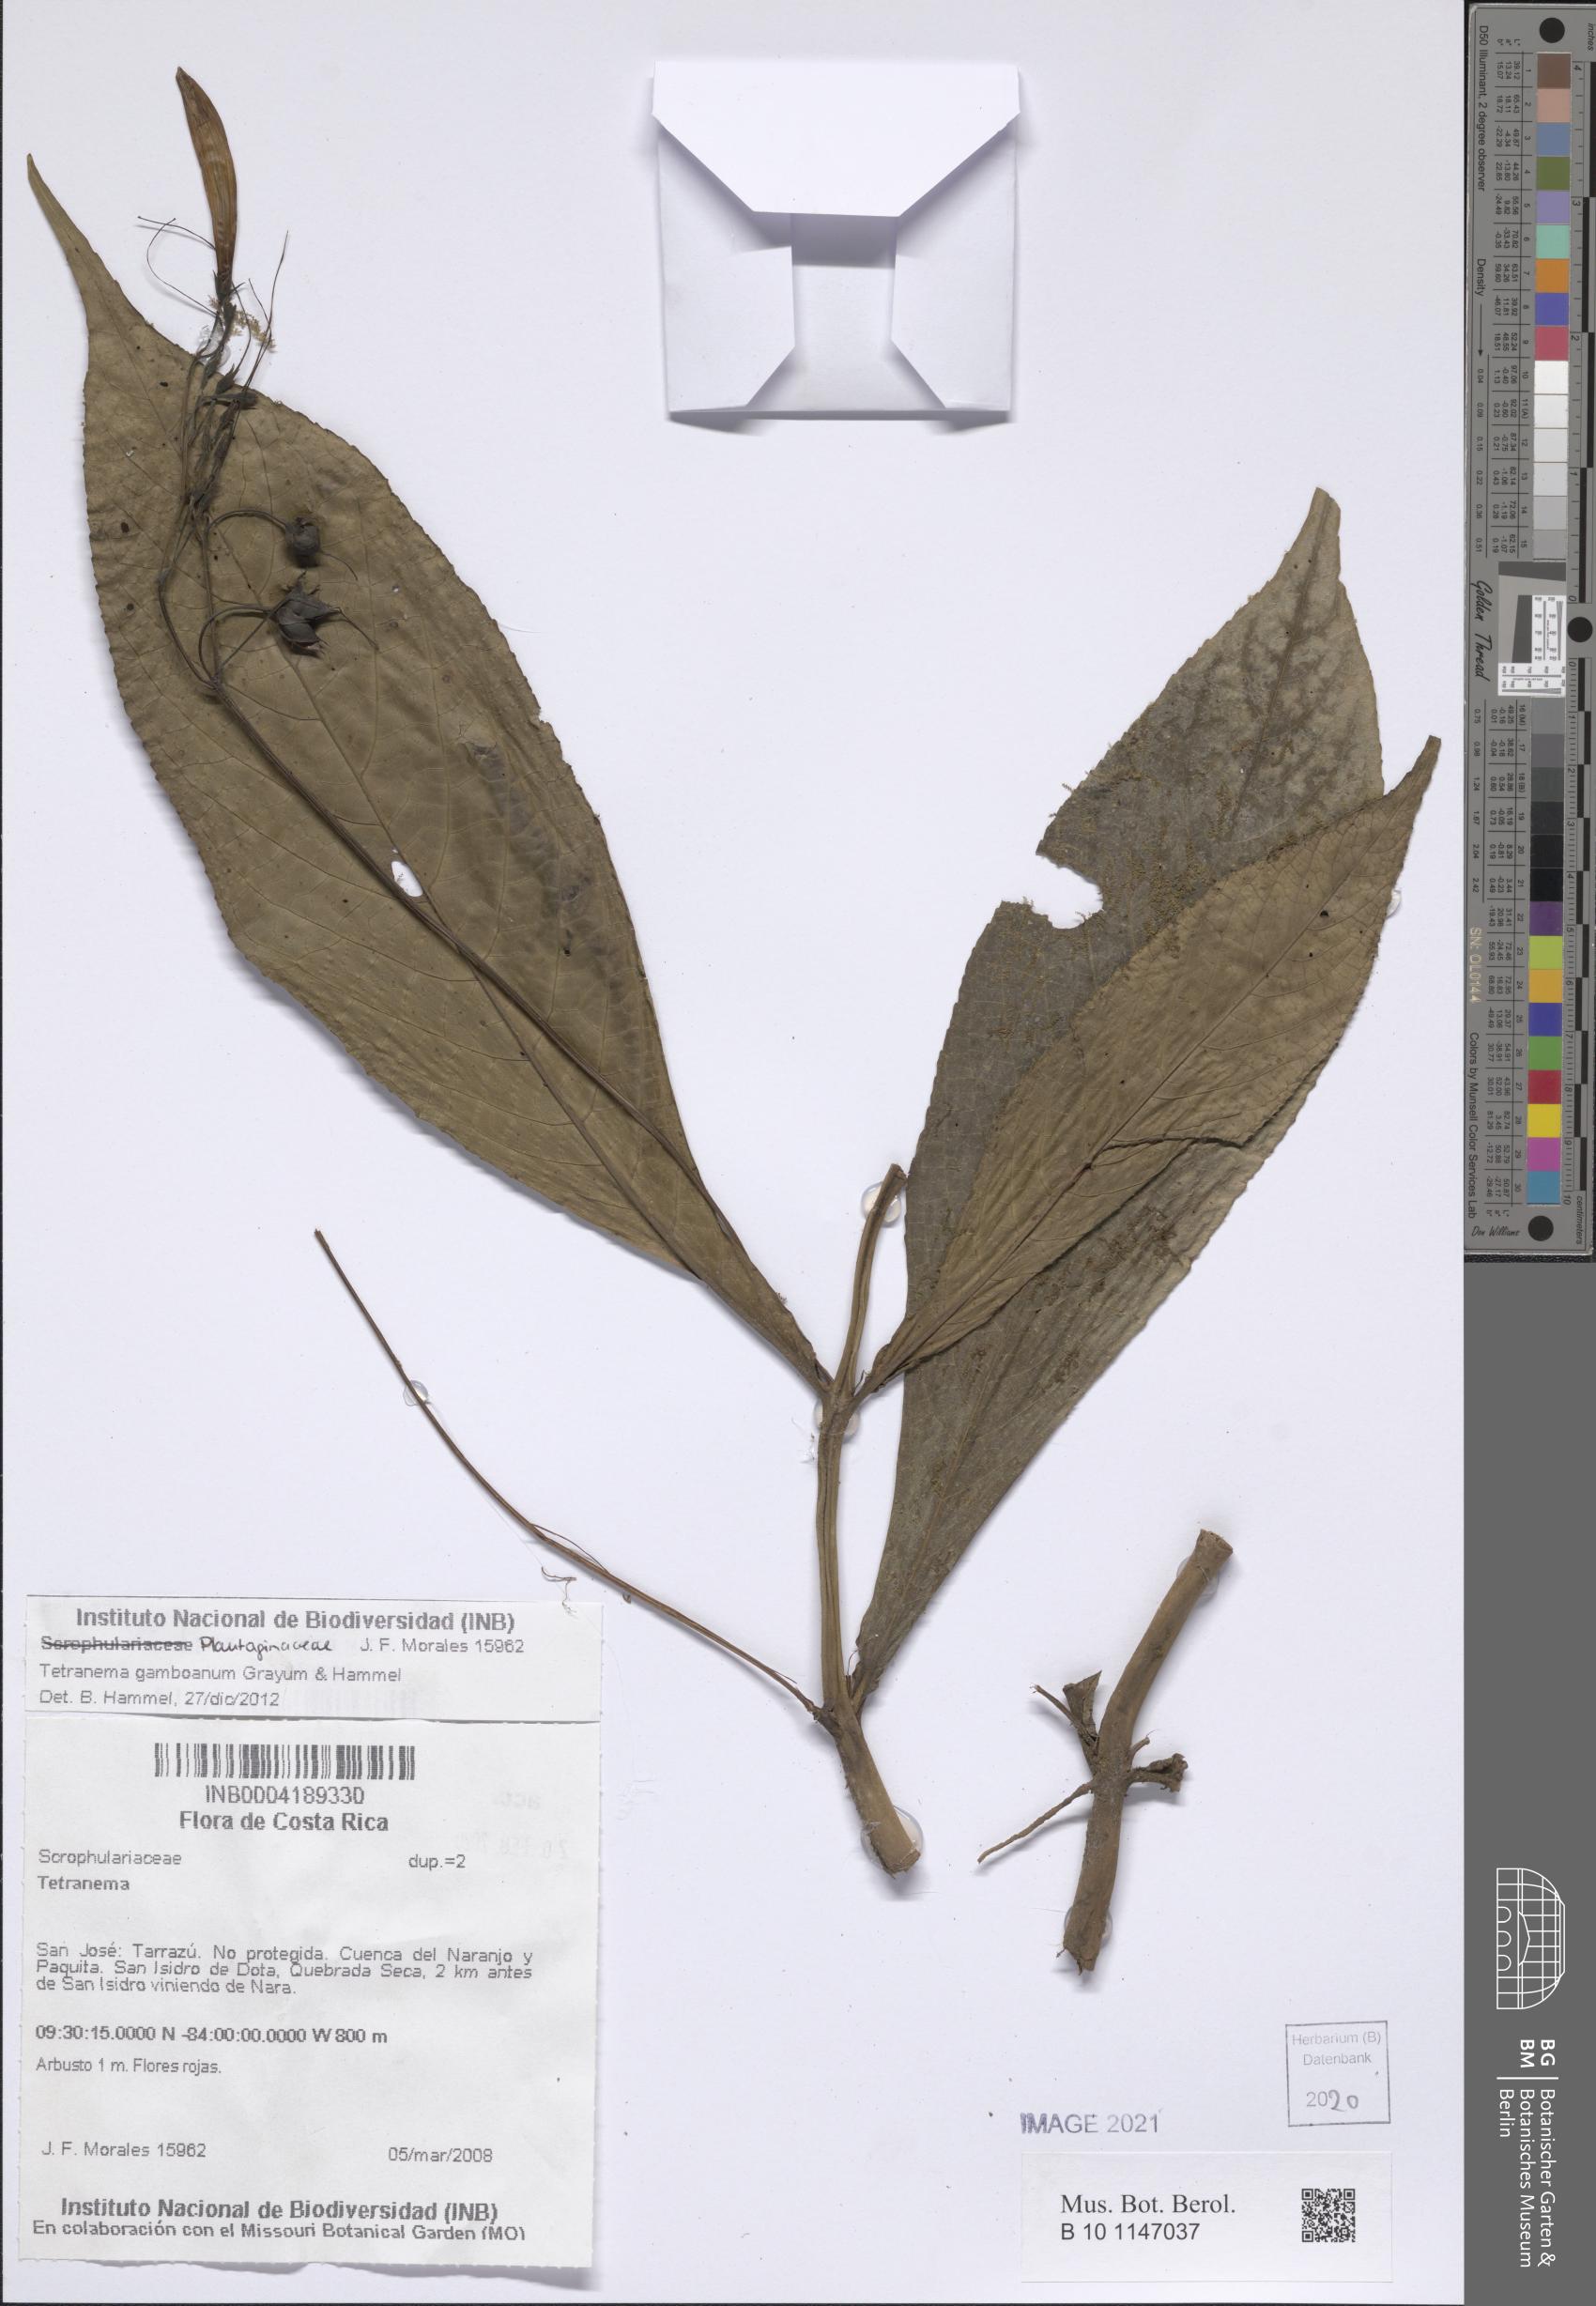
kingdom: Plantae
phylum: Tracheophyta
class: Magnoliopsida
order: Lamiales
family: Plantaginaceae
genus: Tetranema
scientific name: Tetranema gamboanum
